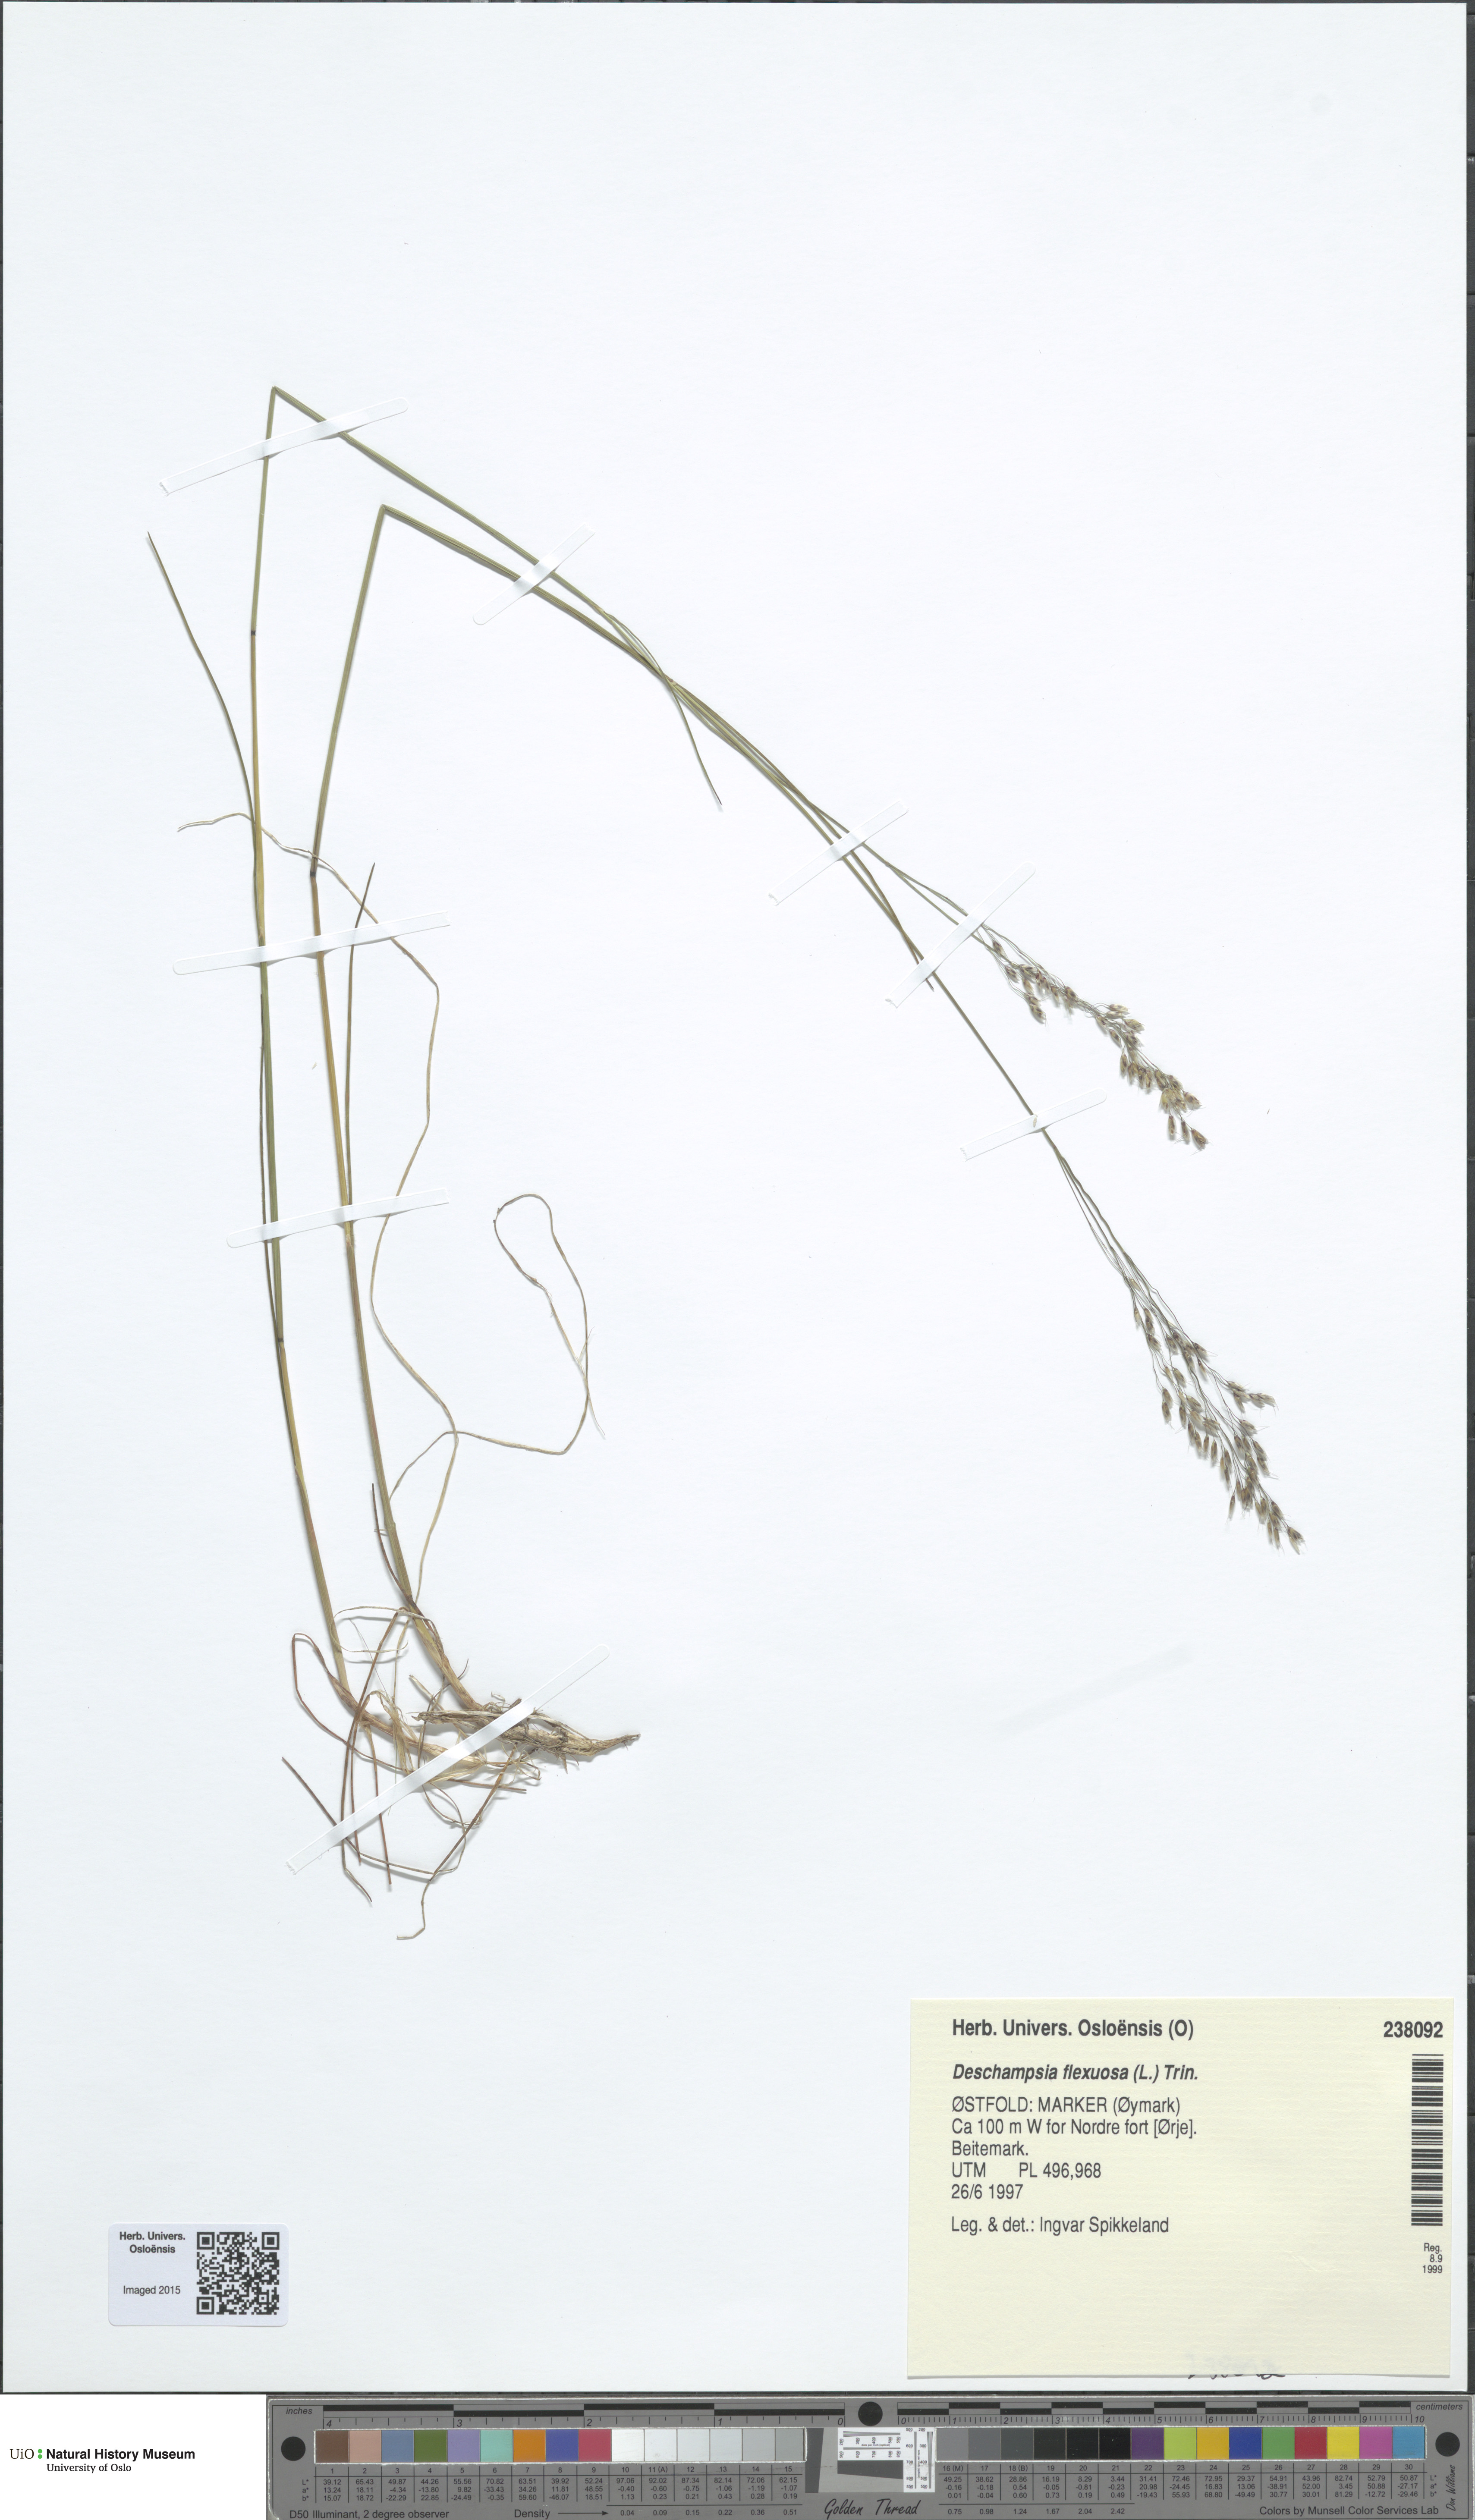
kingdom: Plantae
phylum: Tracheophyta
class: Liliopsida
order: Poales
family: Poaceae
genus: Avenella
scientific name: Avenella flexuosa
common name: Wavy hairgrass
